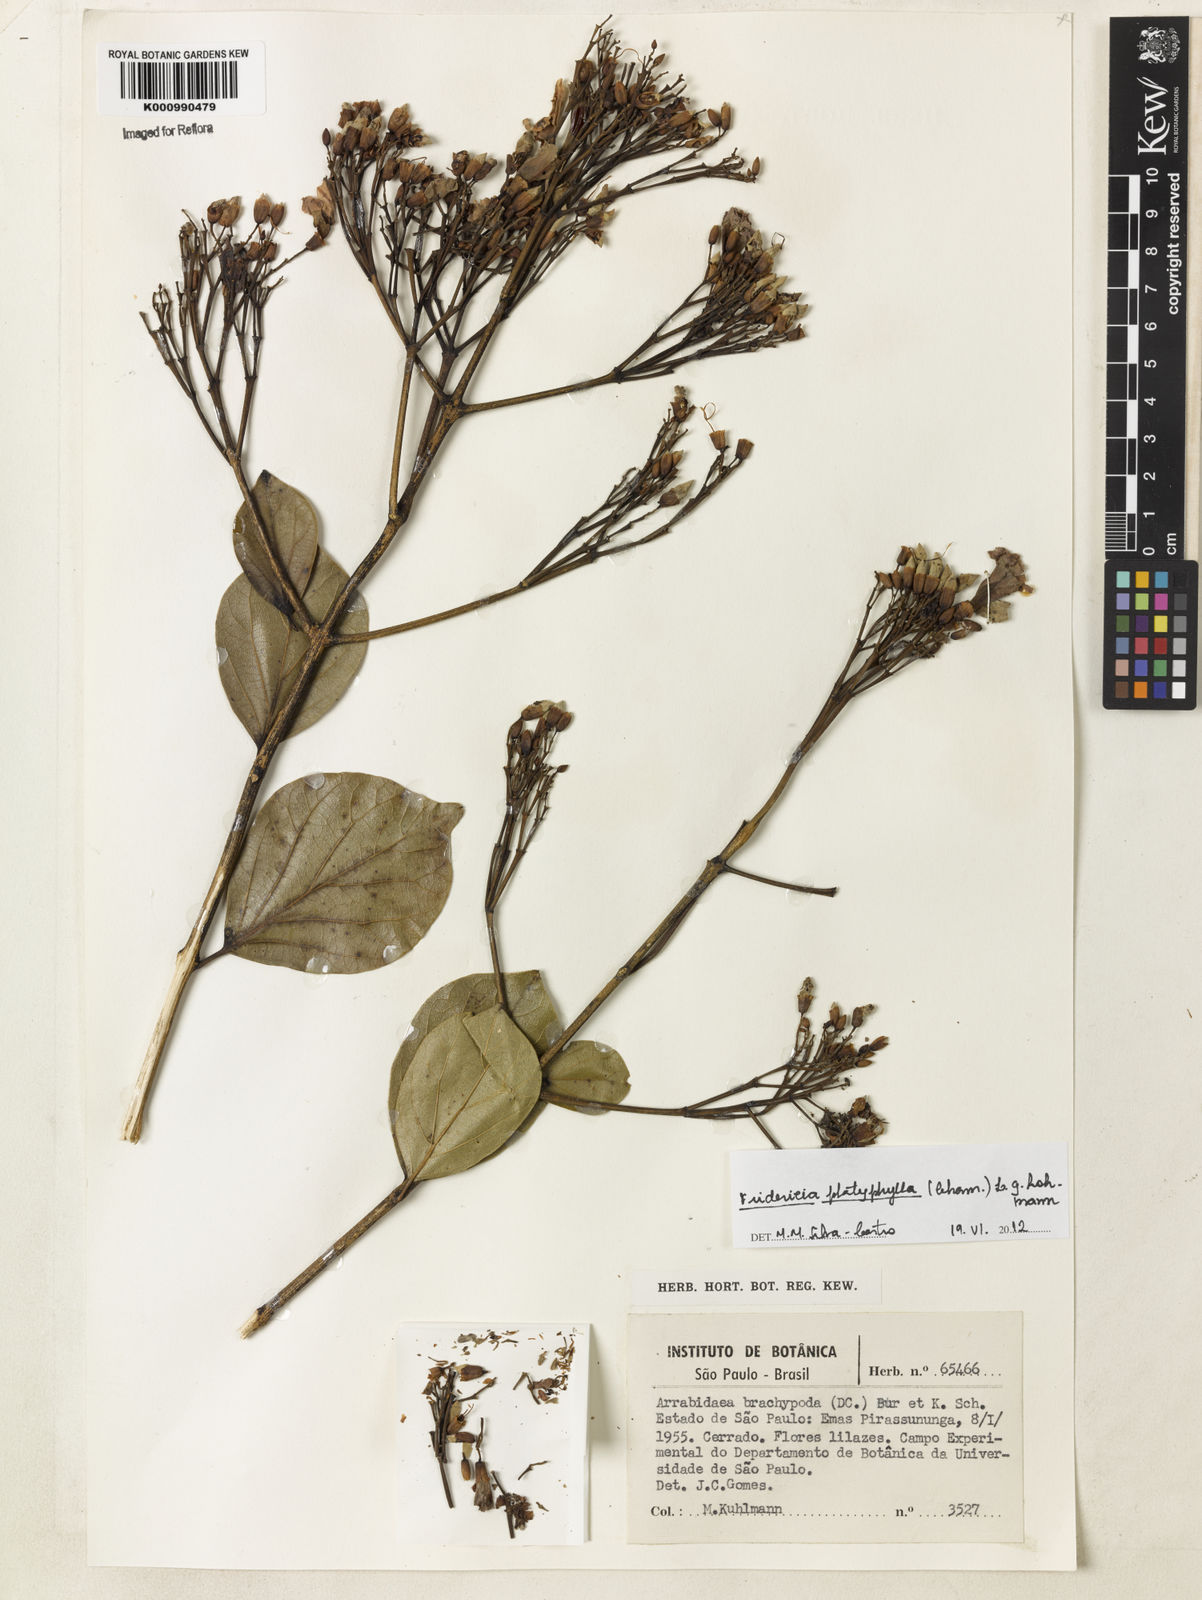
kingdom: Plantae
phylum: Tracheophyta
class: Magnoliopsida
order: Lamiales
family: Bignoniaceae
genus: Fridericia
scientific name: Fridericia platyphylla
